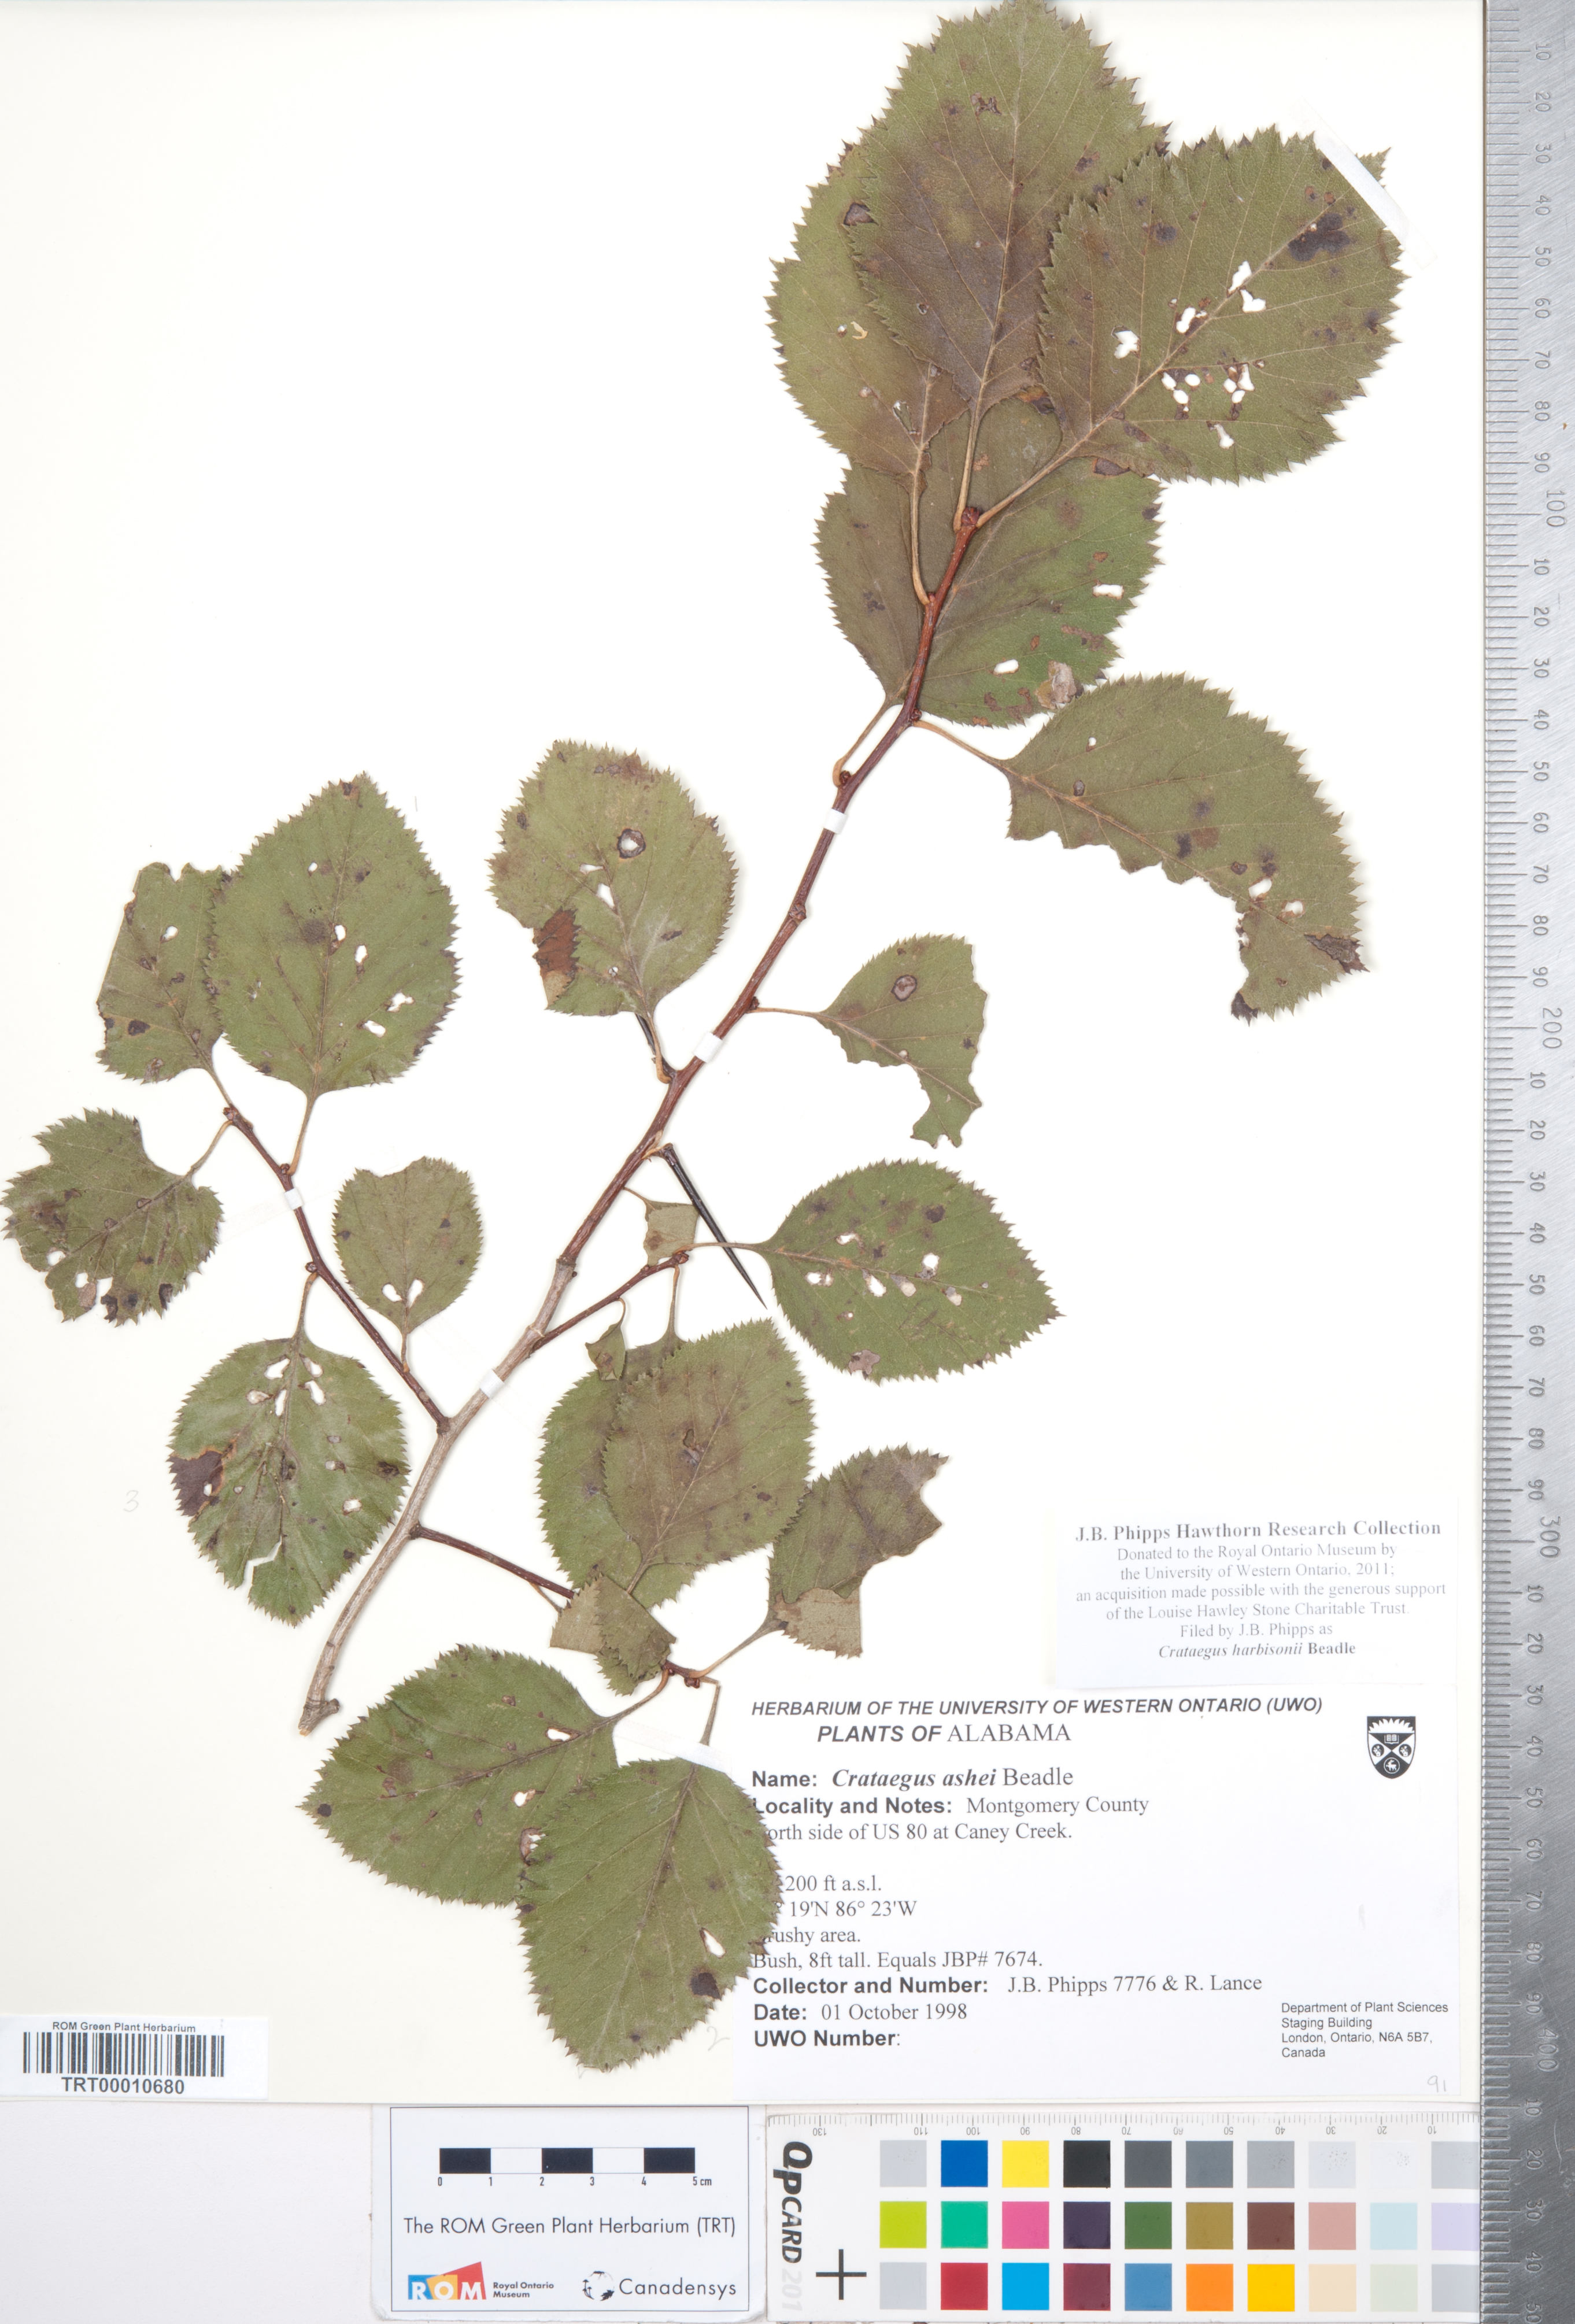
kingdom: Plantae
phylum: Tracheophyta
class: Magnoliopsida
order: Rosales
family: Rosaceae
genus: Crataegus
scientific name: Crataegus harbisonii
